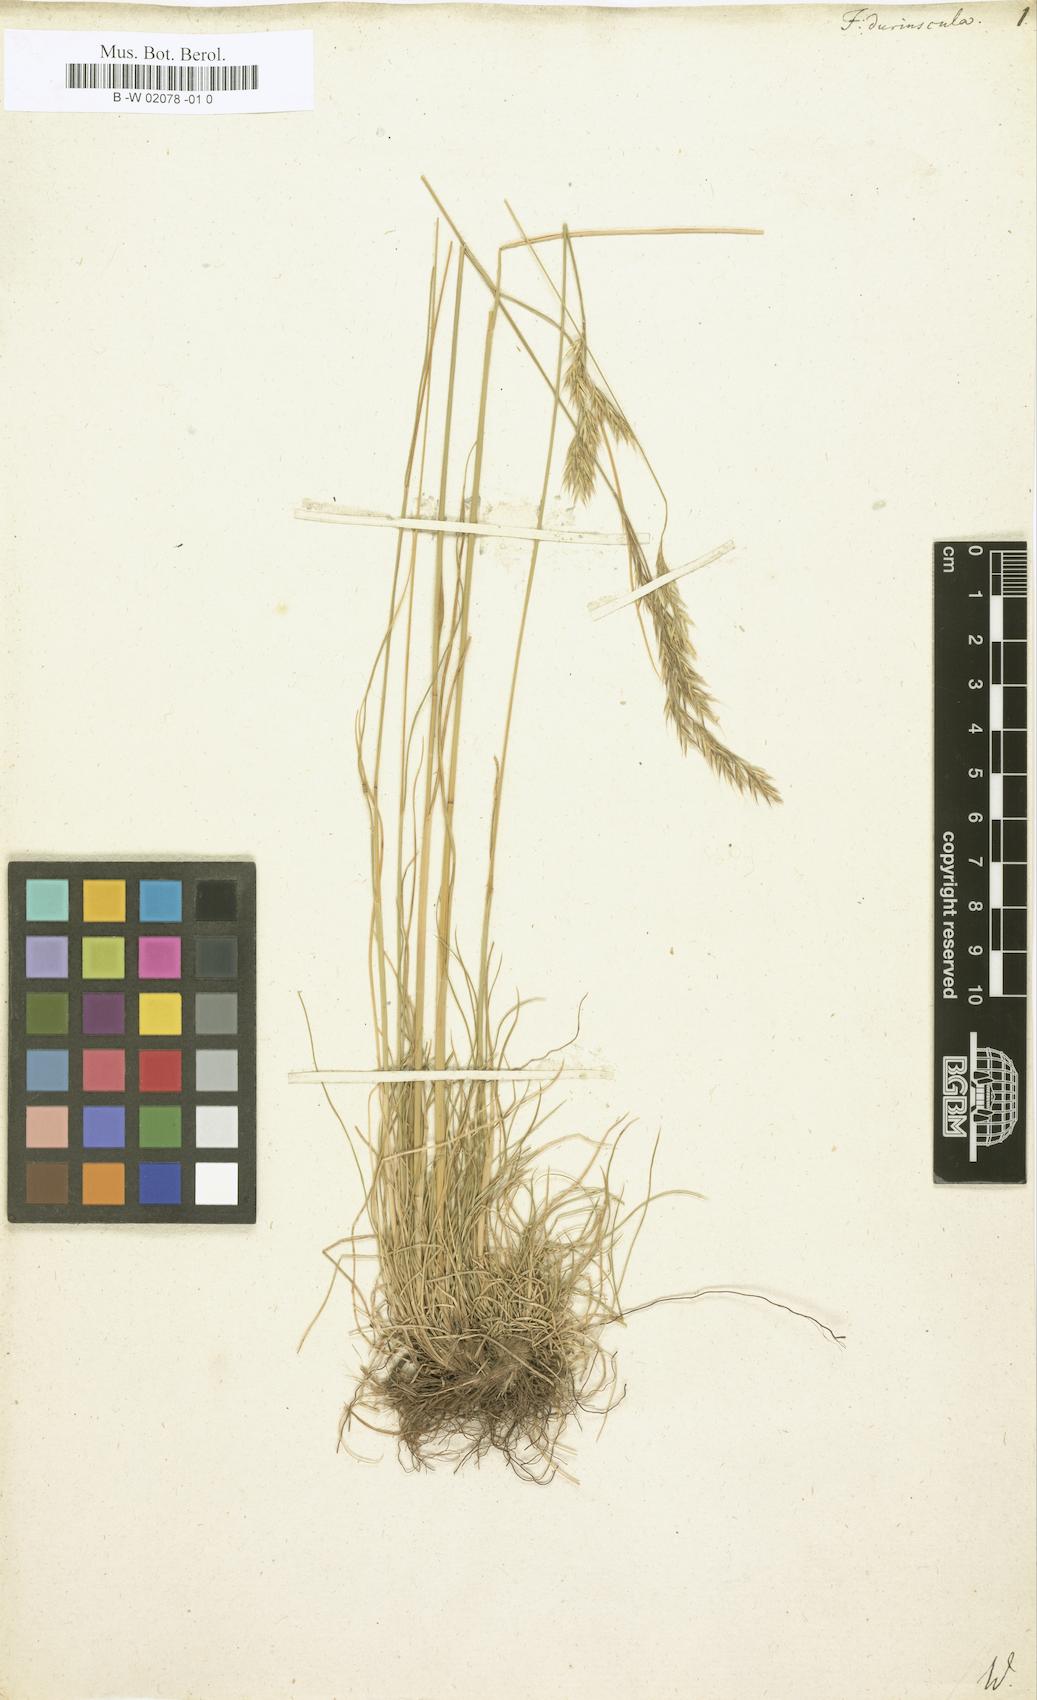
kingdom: Plantae
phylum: Tracheophyta
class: Liliopsida
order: Poales
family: Poaceae
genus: Festuca
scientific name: Festuca
